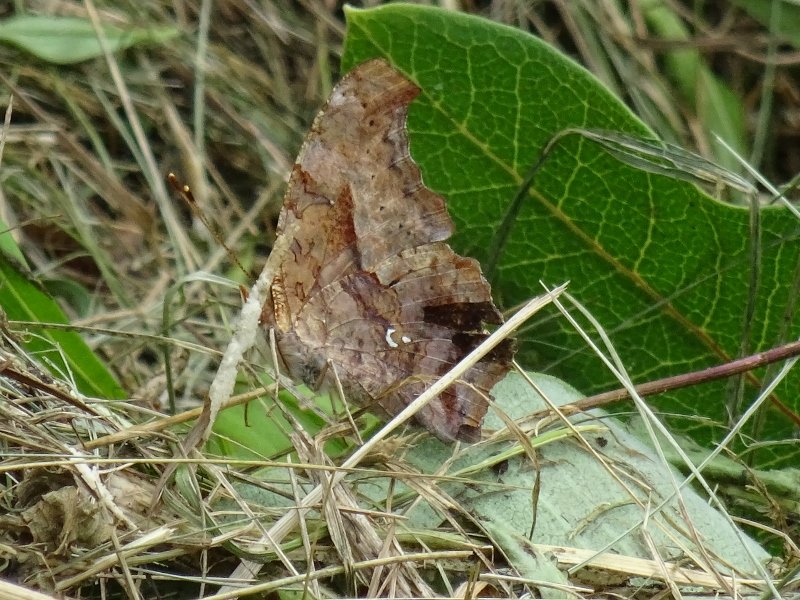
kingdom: Animalia
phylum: Arthropoda
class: Insecta
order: Lepidoptera
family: Nymphalidae
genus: Polygonia
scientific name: Polygonia interrogationis
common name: Question Mark
